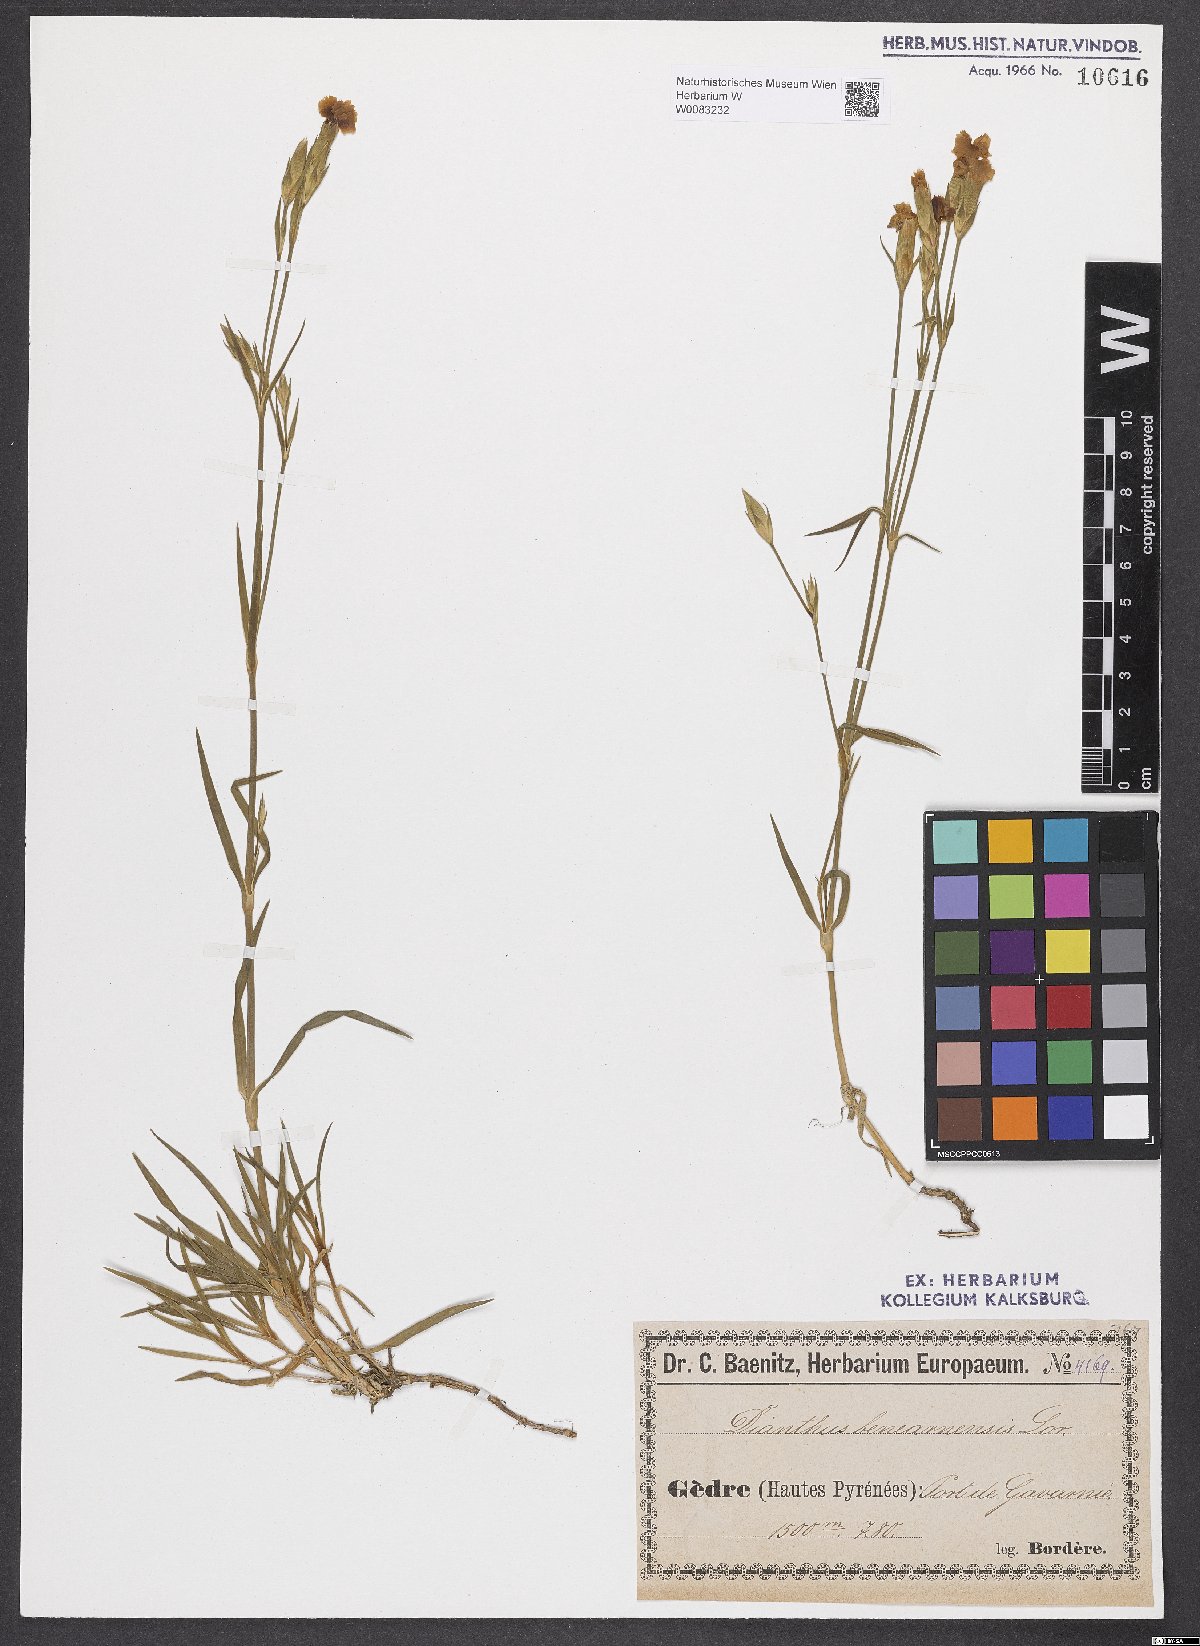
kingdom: Plantae
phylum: Tracheophyta
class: Magnoliopsida
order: Caryophyllales
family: Caryophyllaceae
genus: Dianthus
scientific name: Dianthus furcatus
